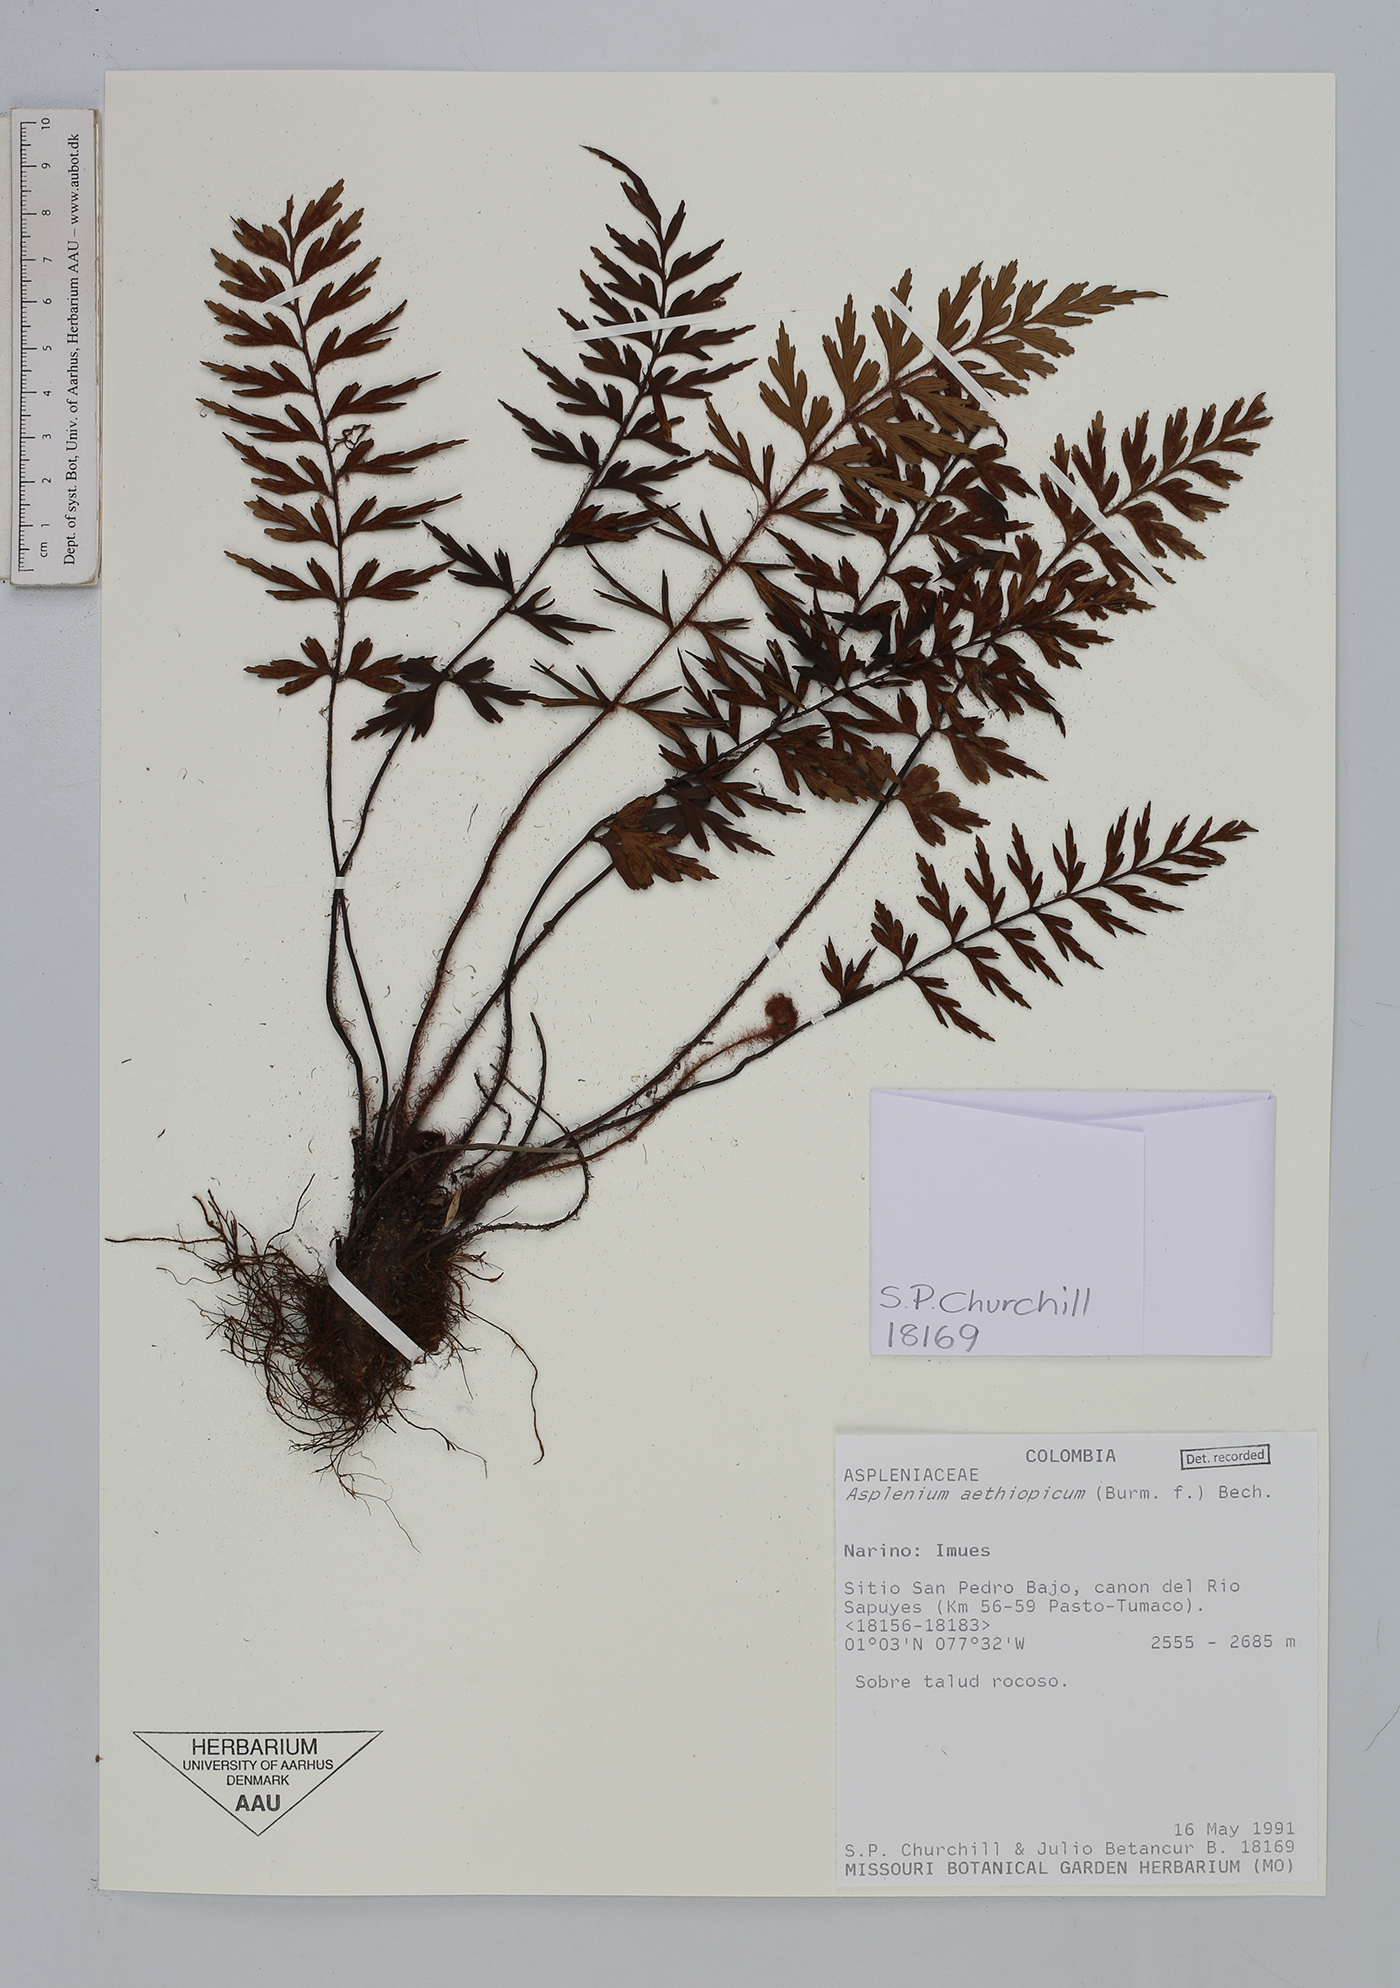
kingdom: Plantae
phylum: Tracheophyta
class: Polypodiopsida
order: Polypodiales
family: Aspleniaceae
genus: Asplenium
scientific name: Asplenium aethiopicum
